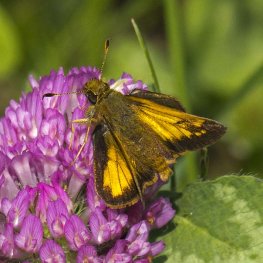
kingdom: Animalia
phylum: Arthropoda
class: Insecta
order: Lepidoptera
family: Hesperiidae
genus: Lon
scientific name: Lon hobomok
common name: Hobomok Skipper
